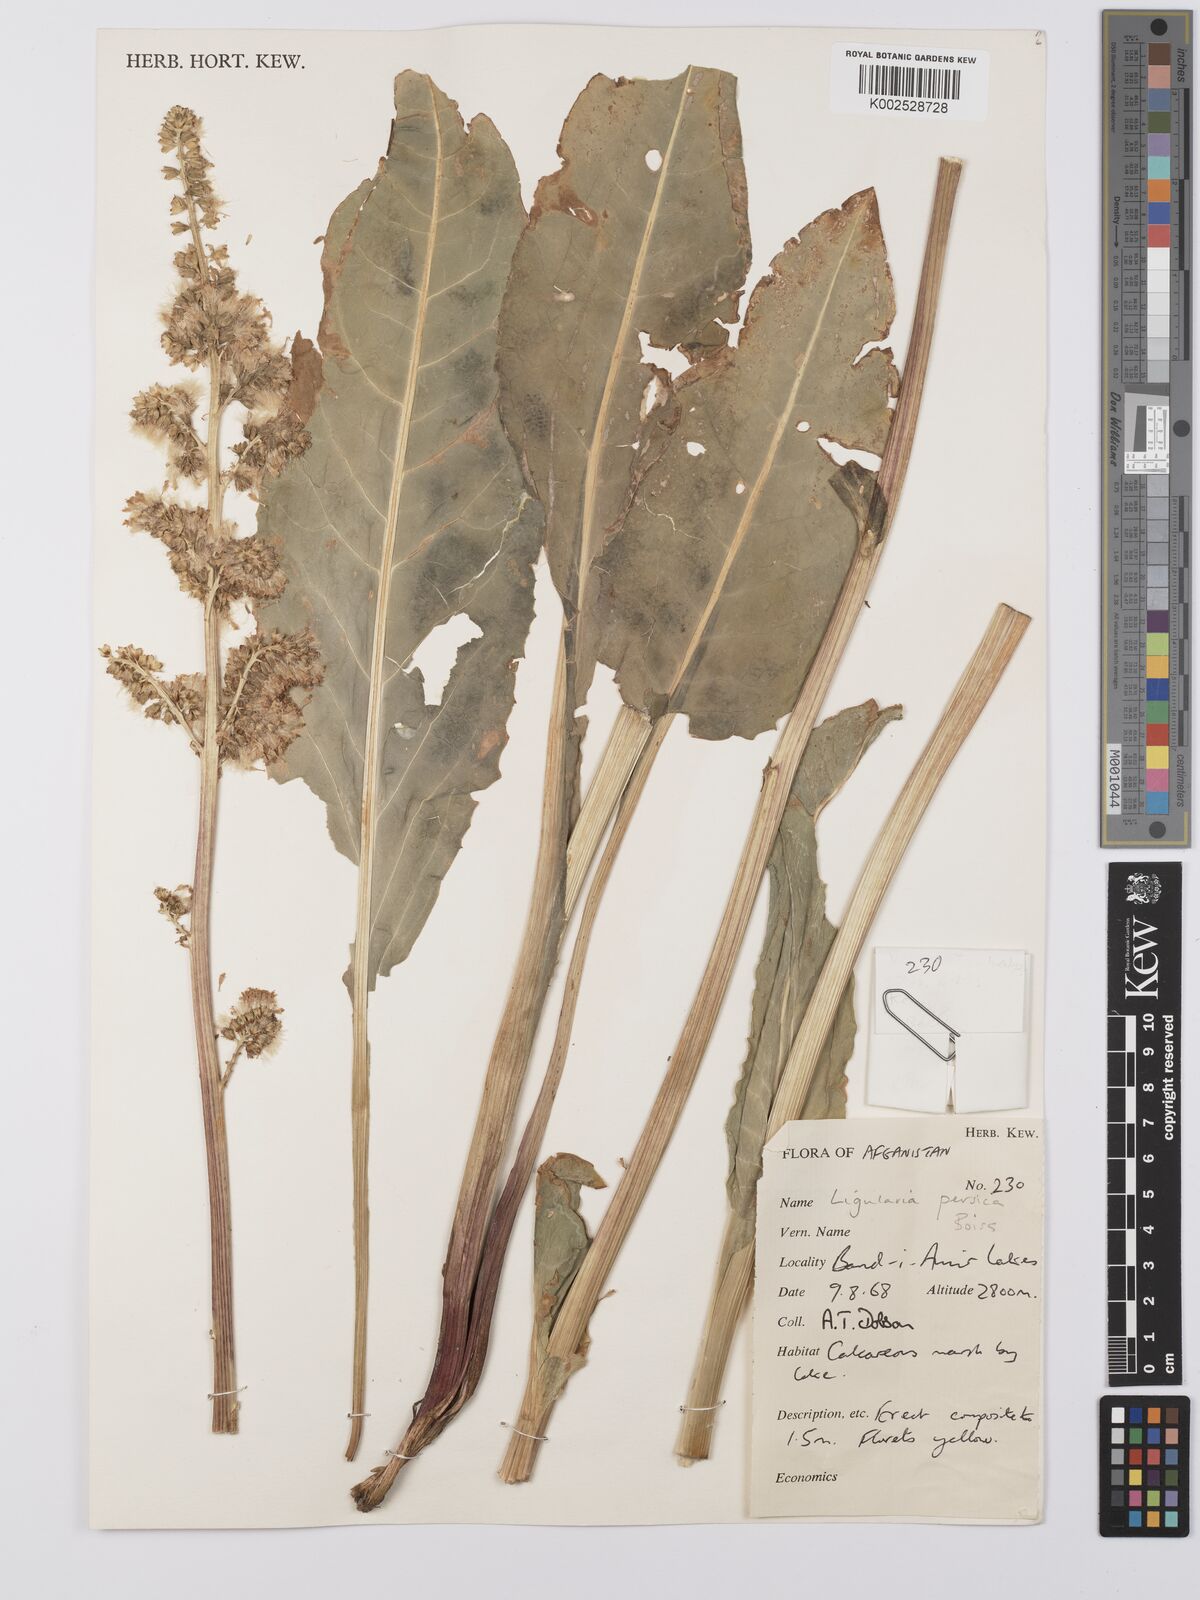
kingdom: Plantae
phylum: Tracheophyta
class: Magnoliopsida
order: Asterales
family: Asteraceae
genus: Ligularia
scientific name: Ligularia afghanica
